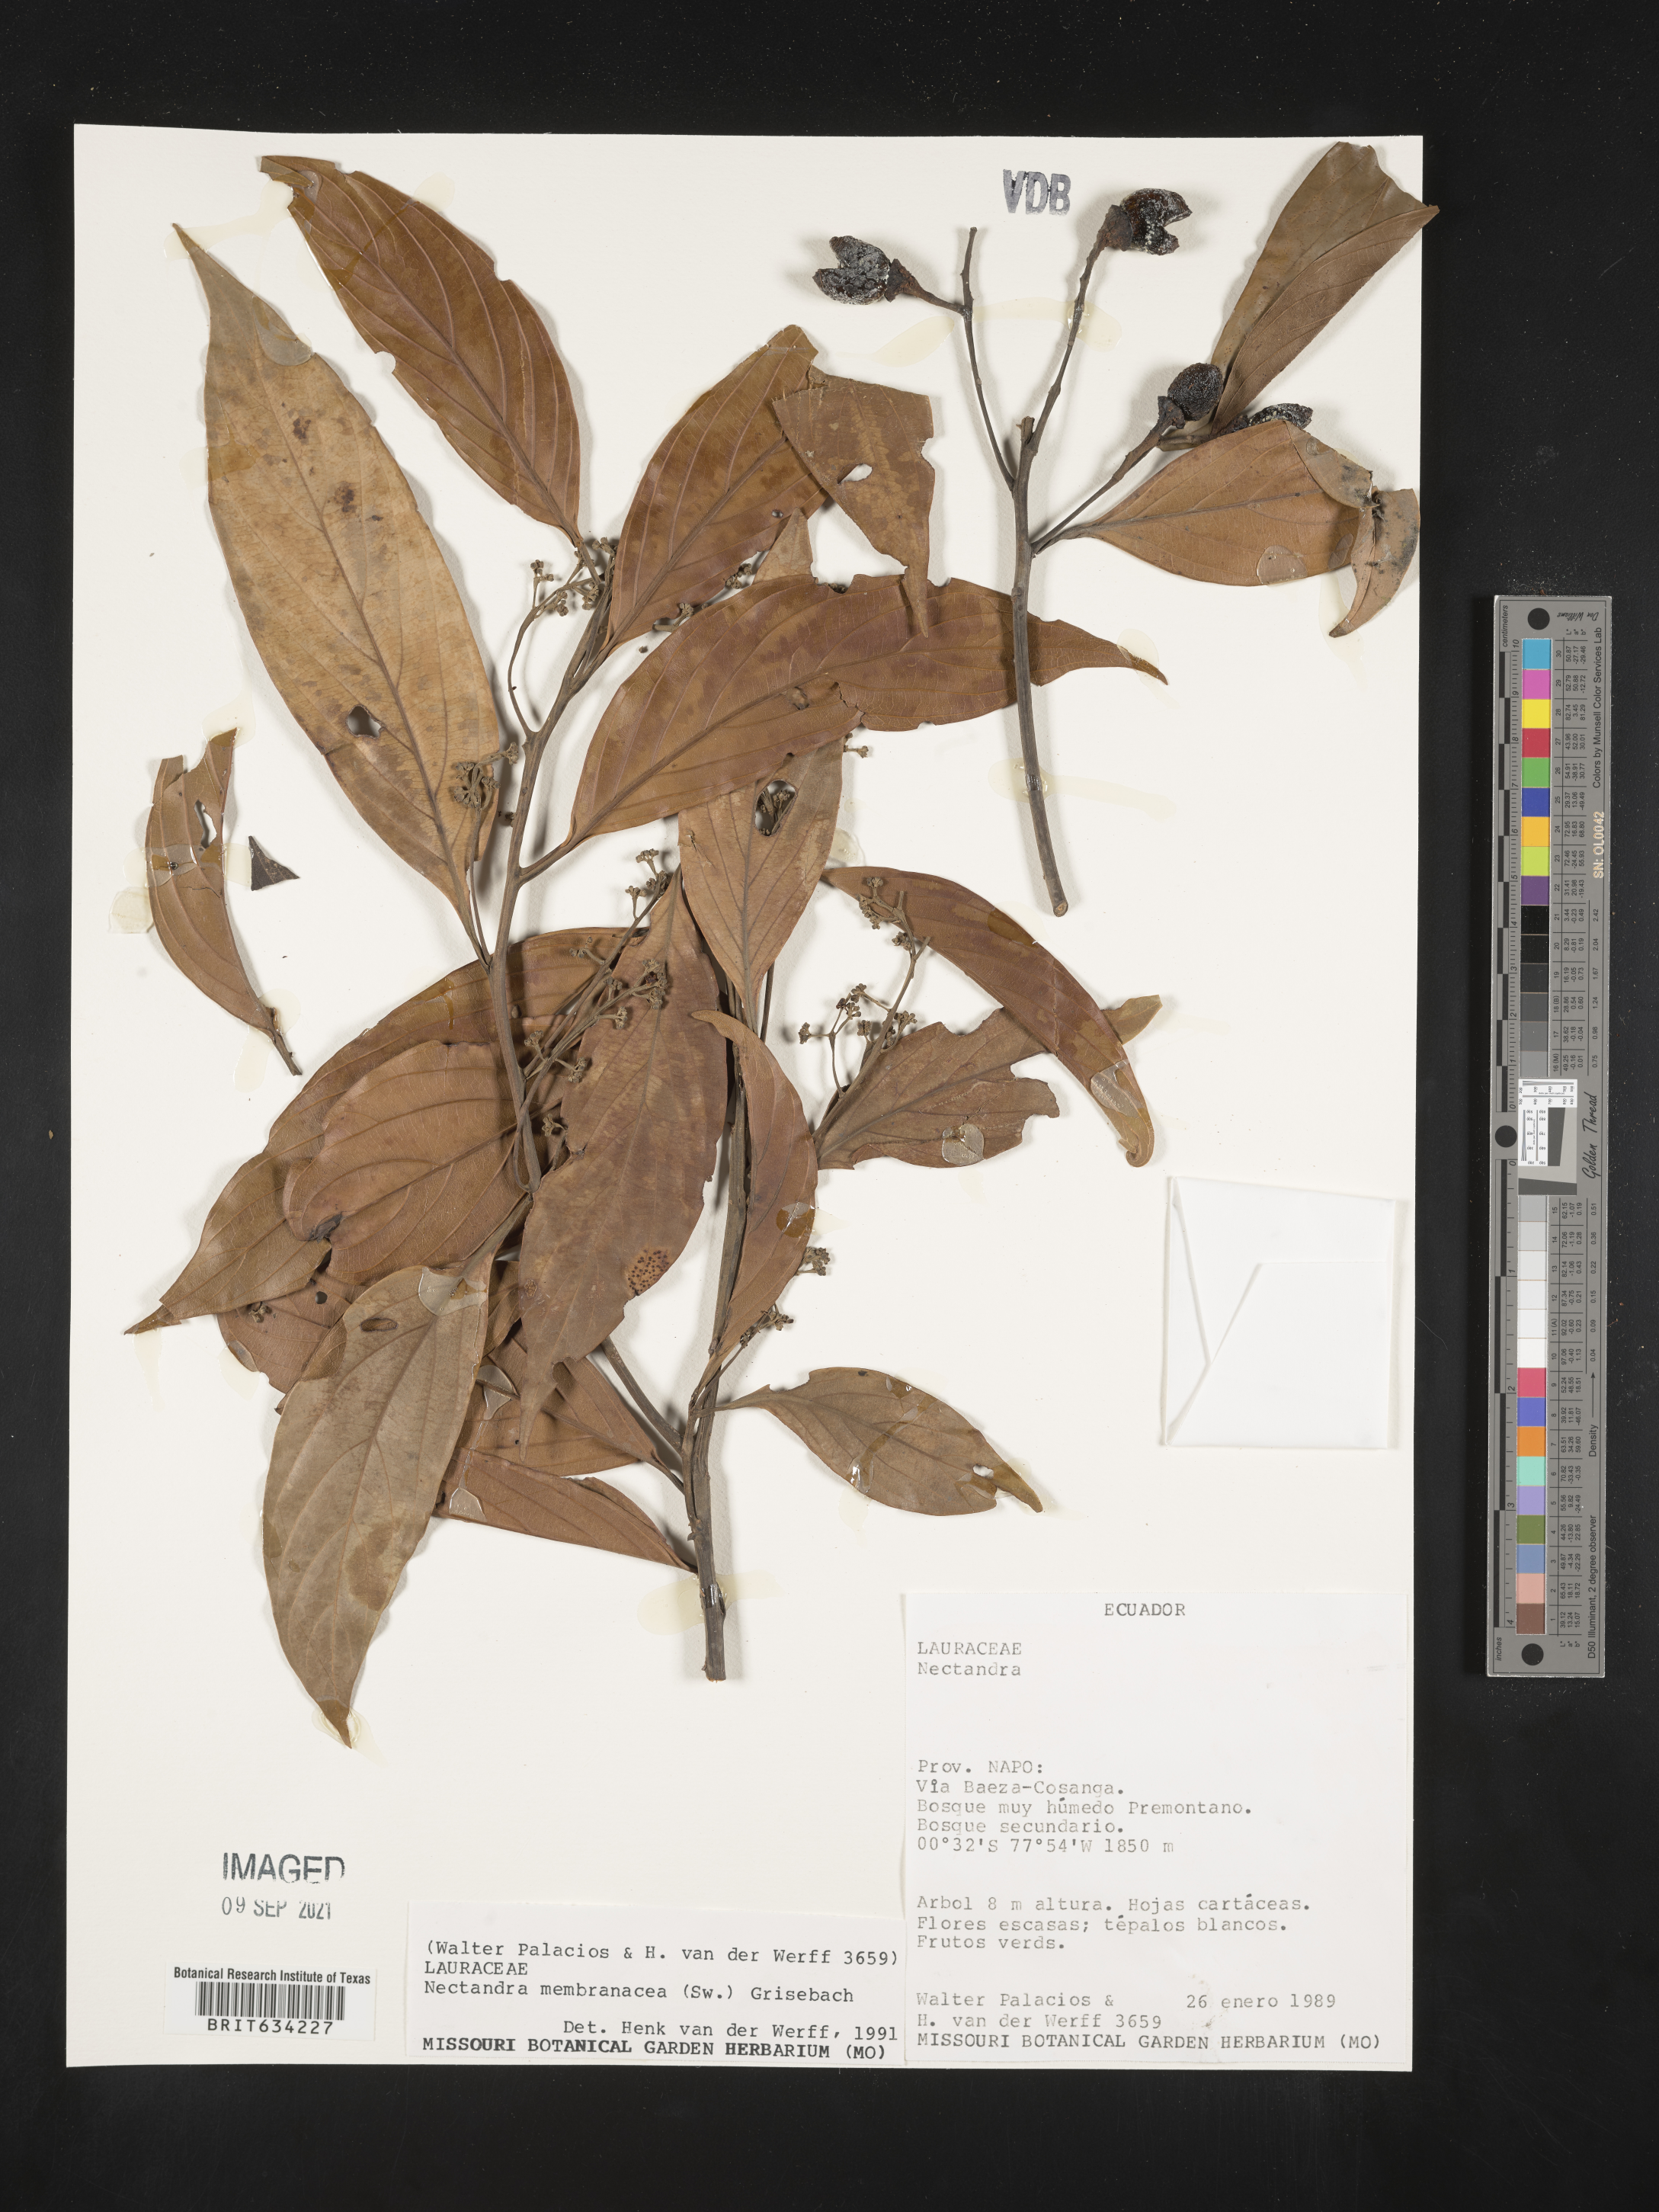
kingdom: Plantae
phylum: Tracheophyta
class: Magnoliopsida
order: Laurales
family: Lauraceae
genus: Nectandra
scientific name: Nectandra
